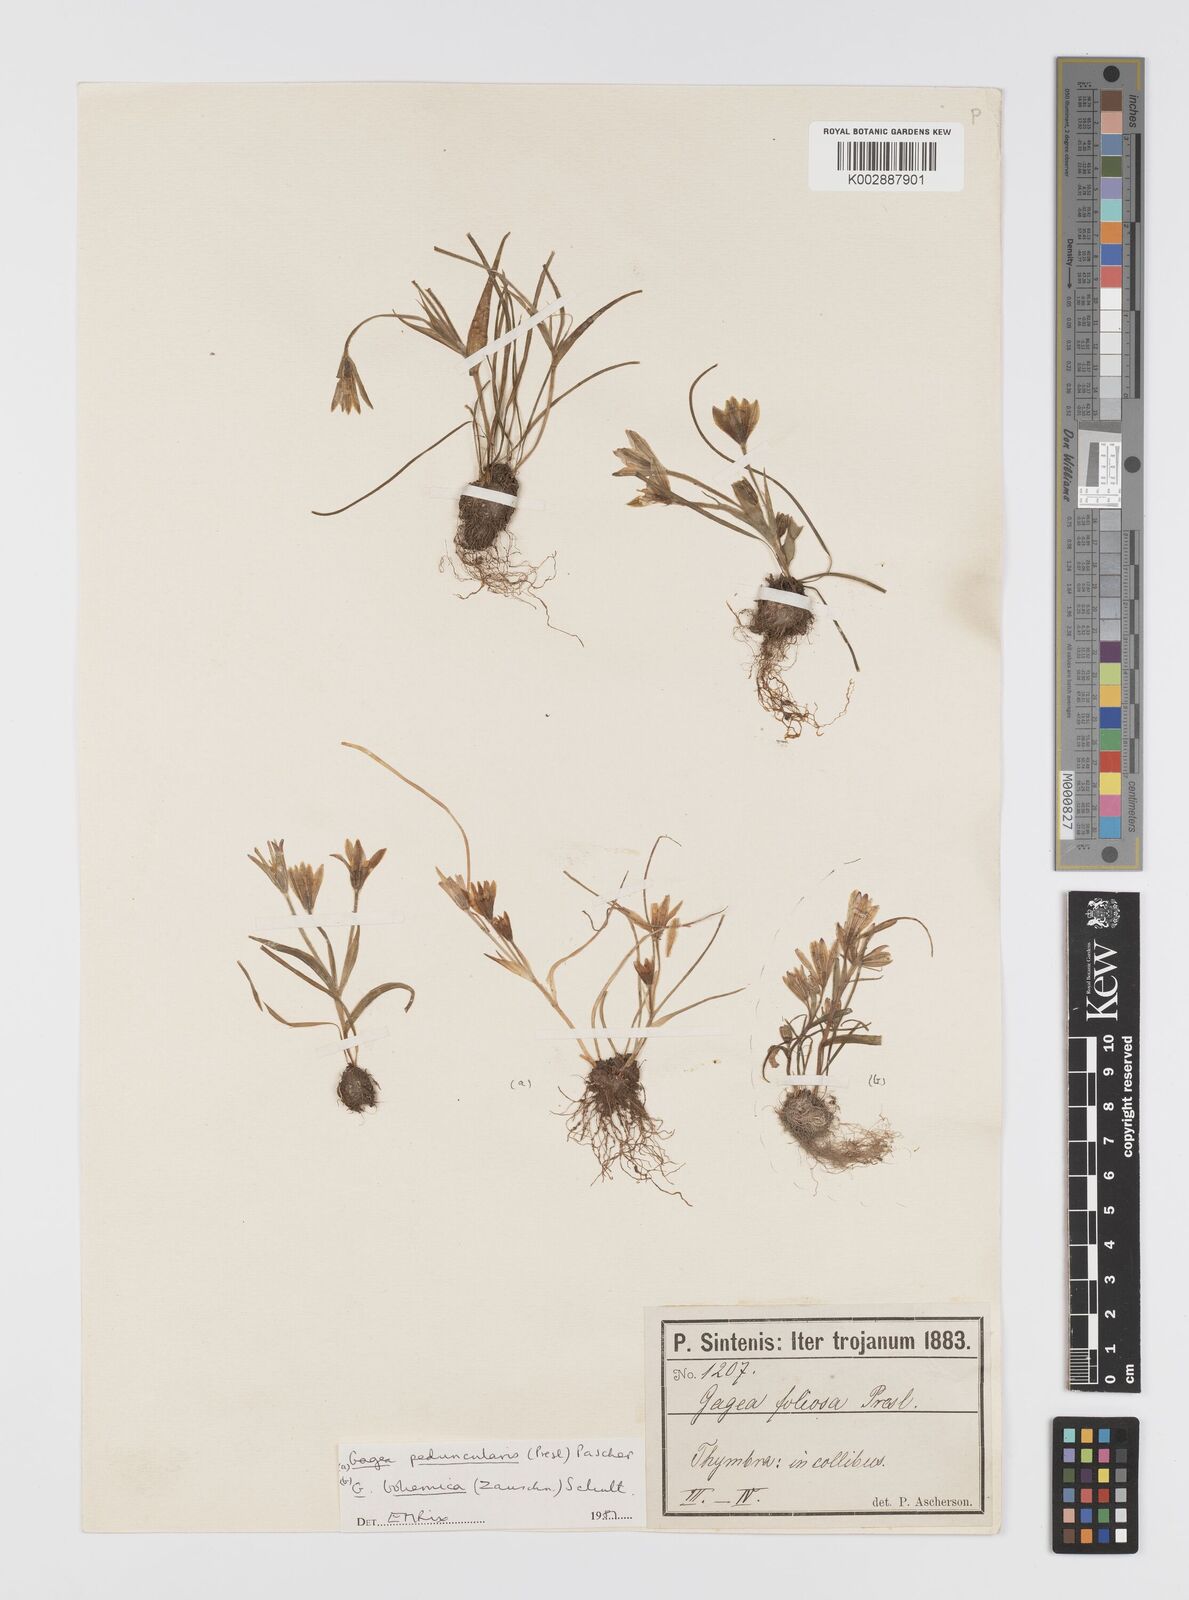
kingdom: Plantae
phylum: Tracheophyta
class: Liliopsida
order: Liliales
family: Liliaceae
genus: Gagea
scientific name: Gagea peduncularis
